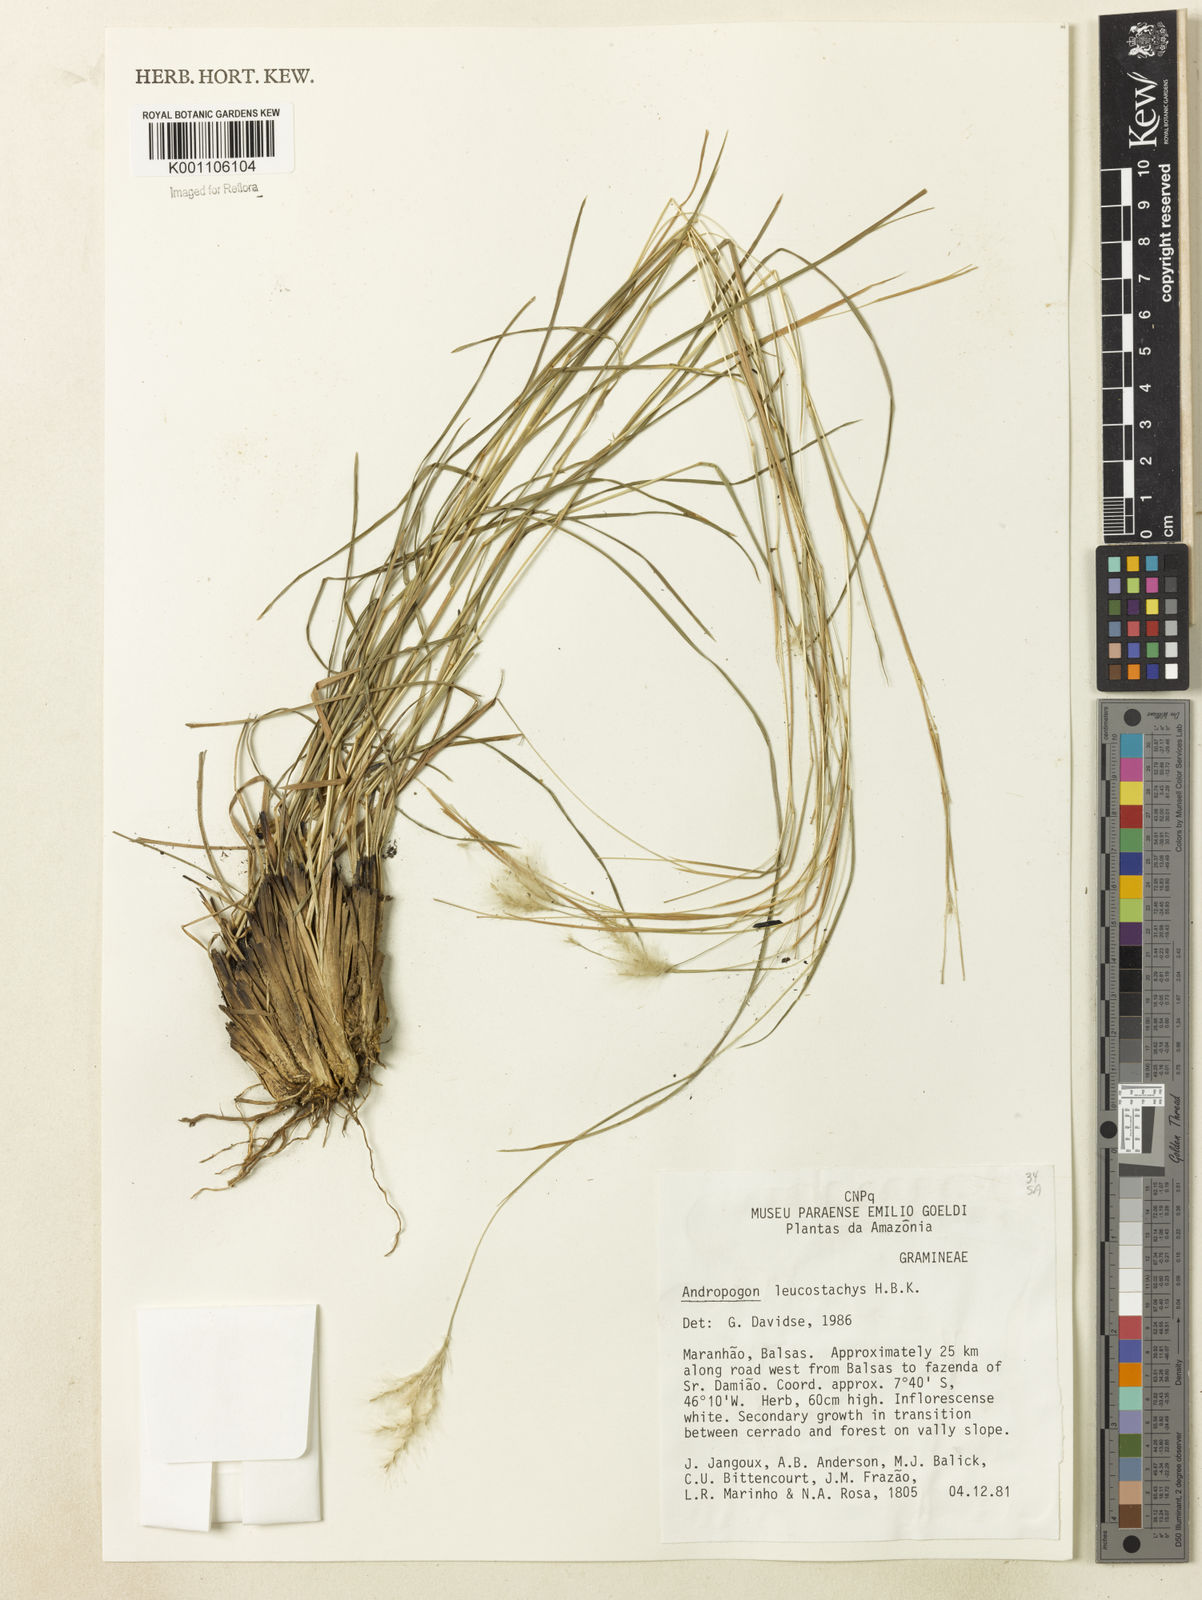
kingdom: Plantae
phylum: Tracheophyta
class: Liliopsida
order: Poales
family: Poaceae
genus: Andropogon
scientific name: Andropogon leucostachyus
